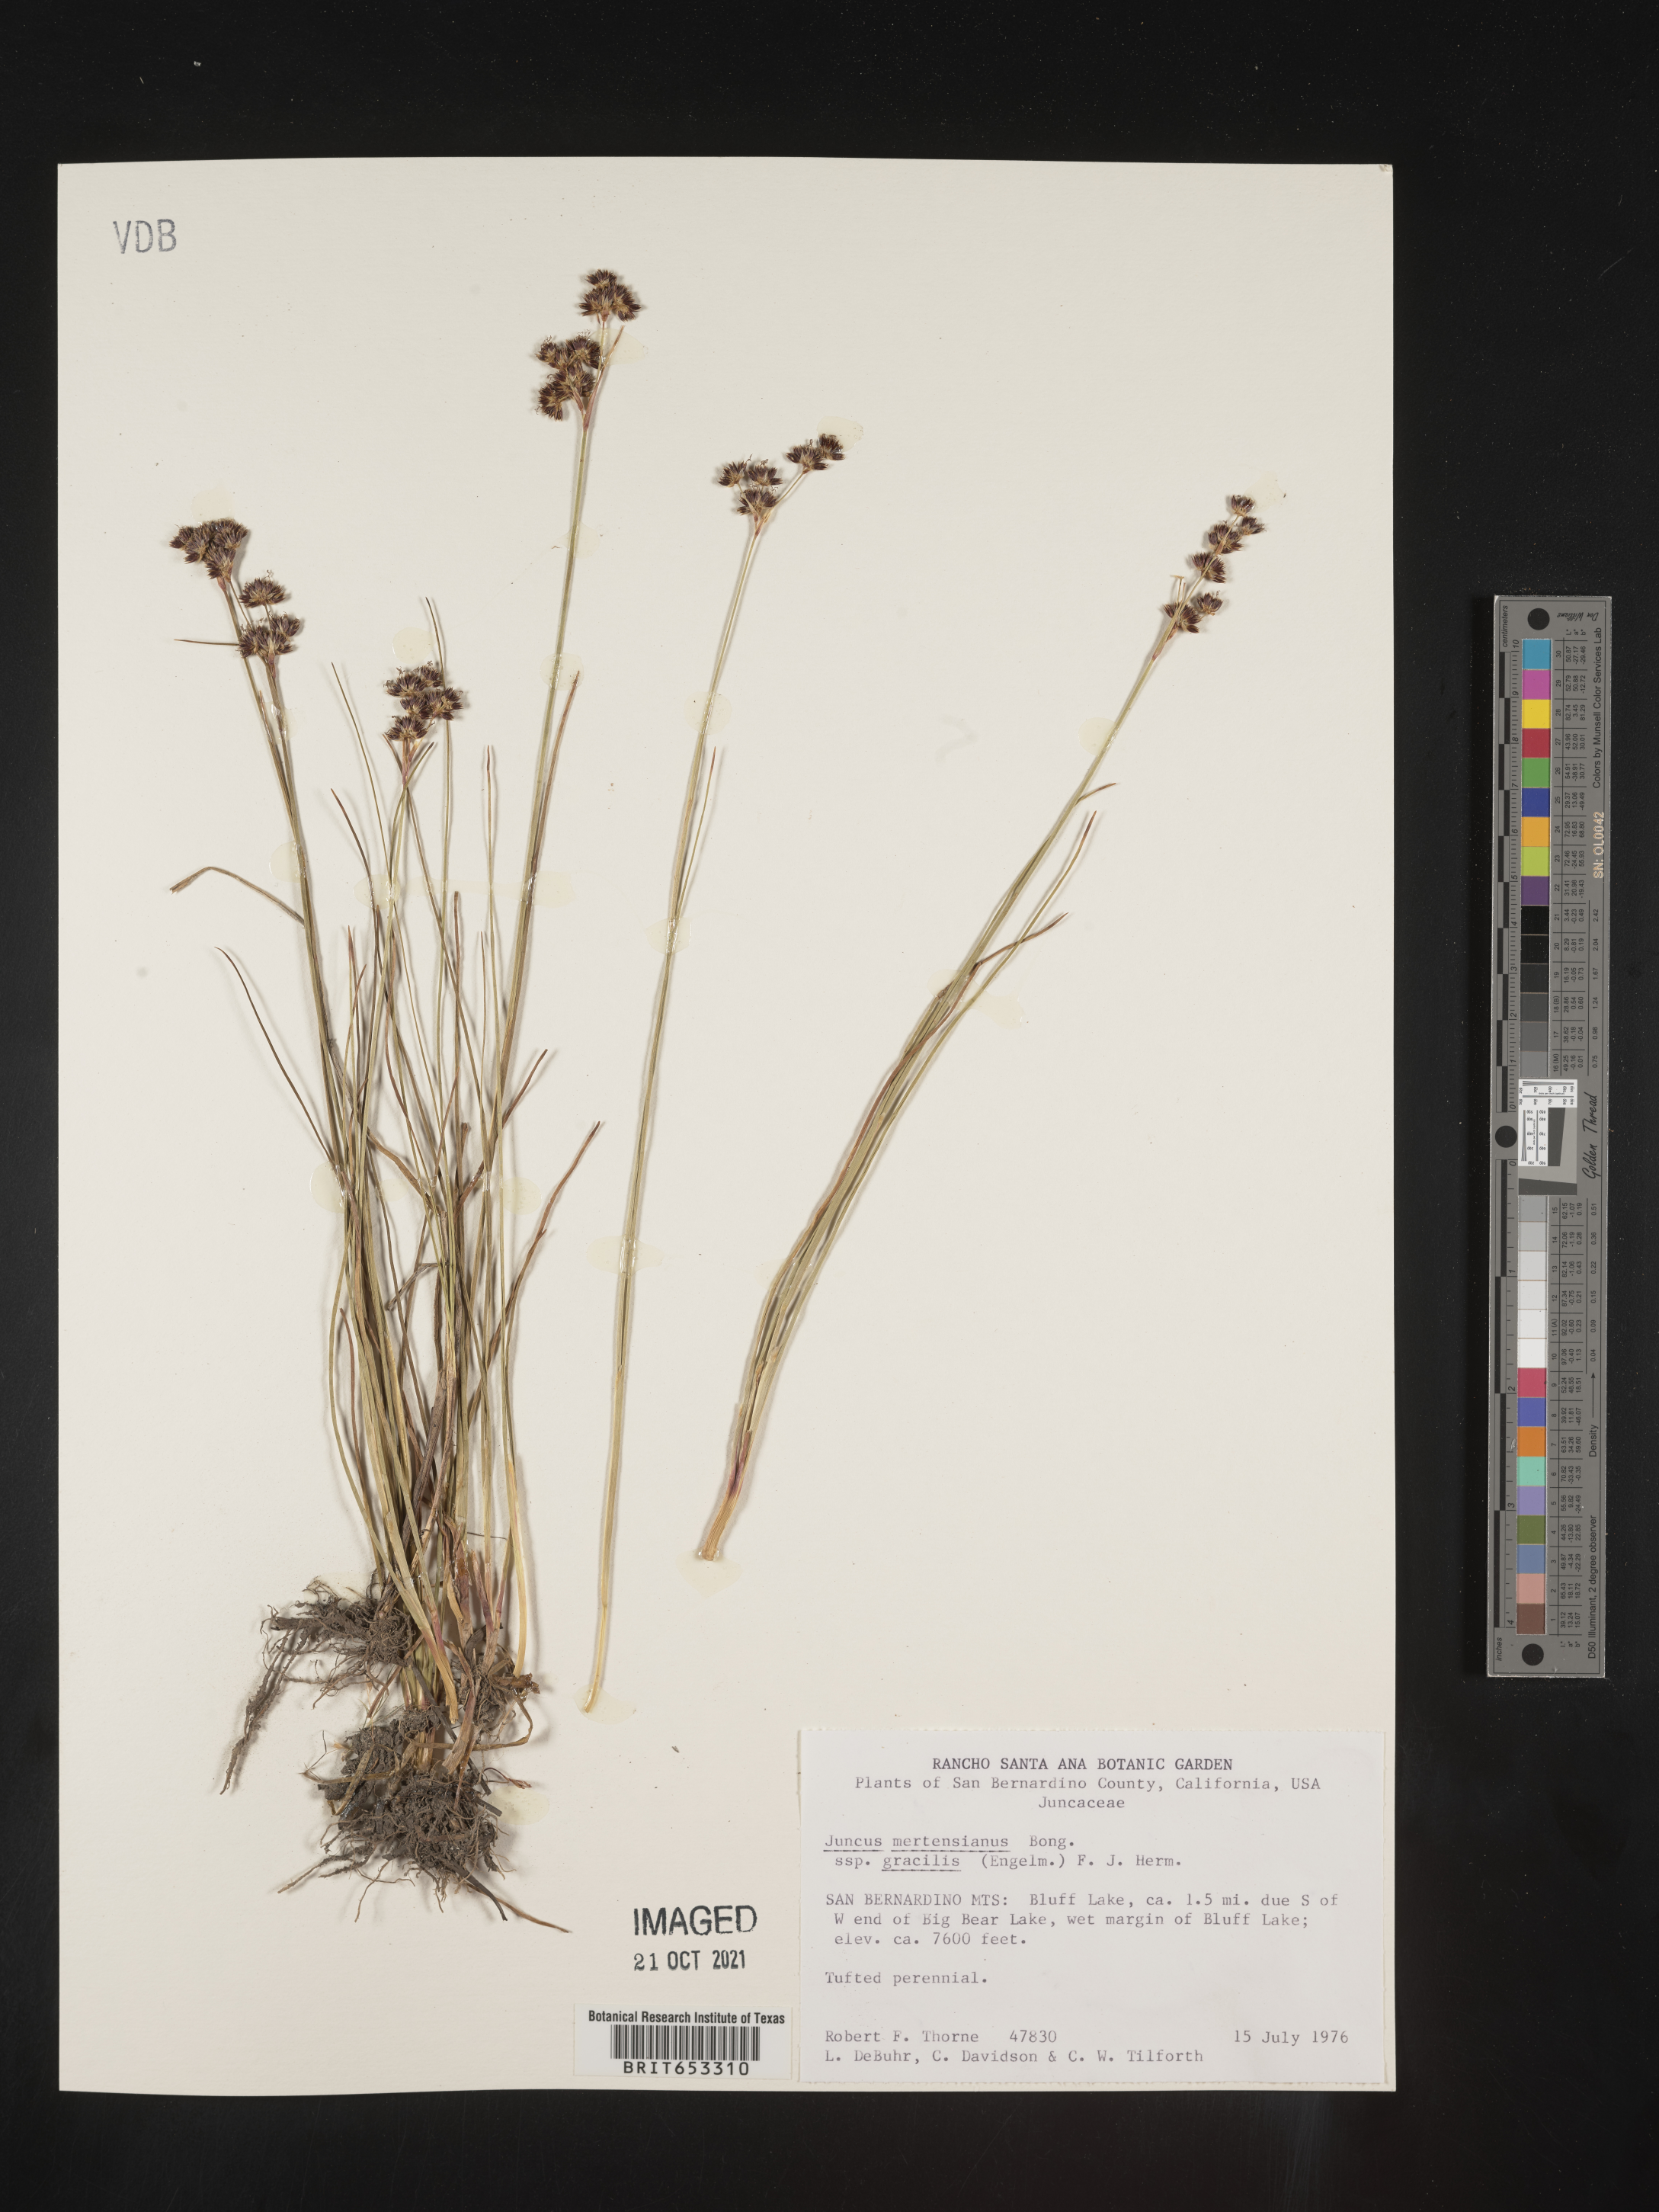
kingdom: Plantae
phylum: Tracheophyta
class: Liliopsida
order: Poales
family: Juncaceae
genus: Juncus
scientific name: Juncus mertensianus
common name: Merten's rush
